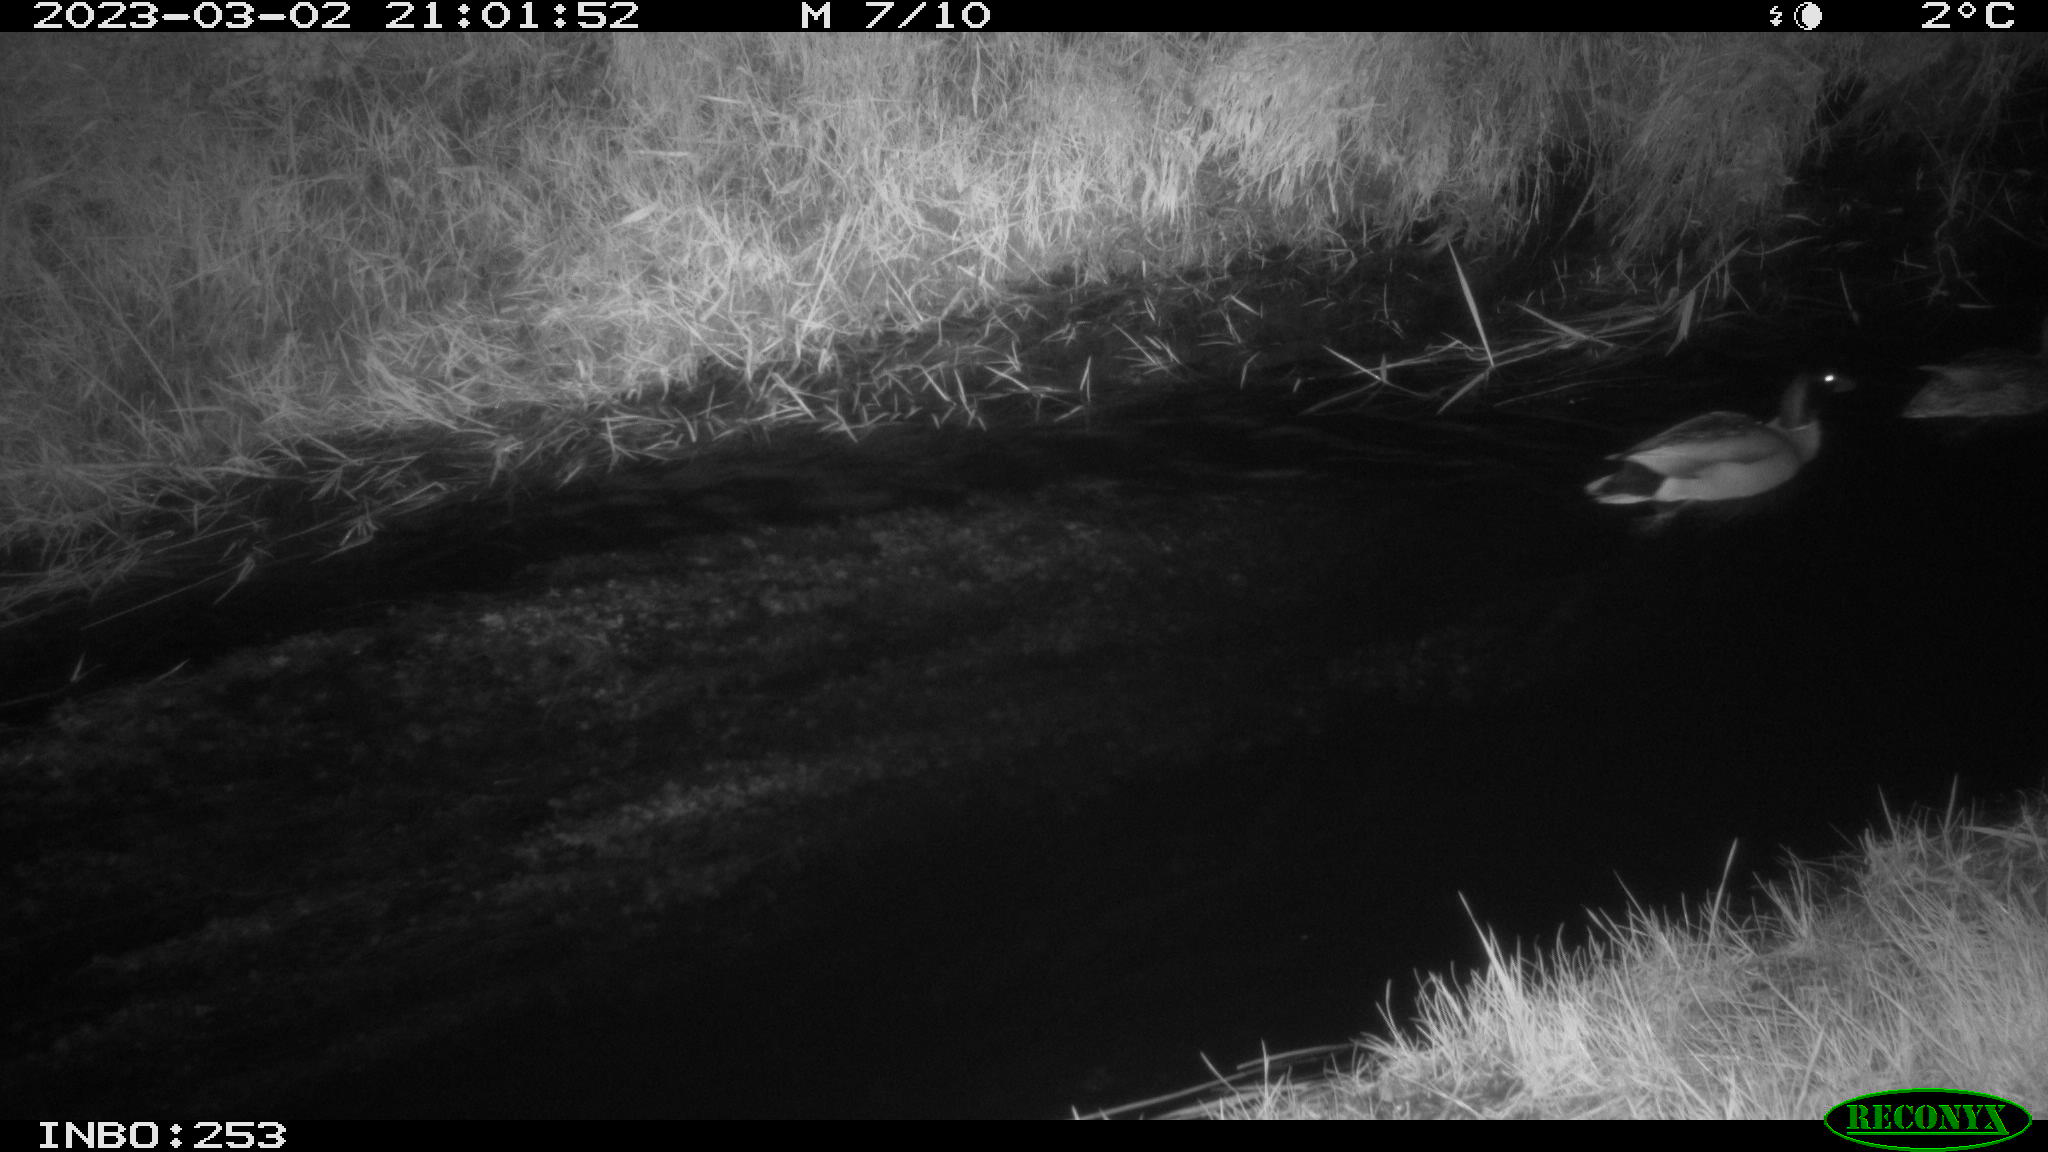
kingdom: Animalia
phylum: Chordata
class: Aves
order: Anseriformes
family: Anatidae
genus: Anas
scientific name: Anas
